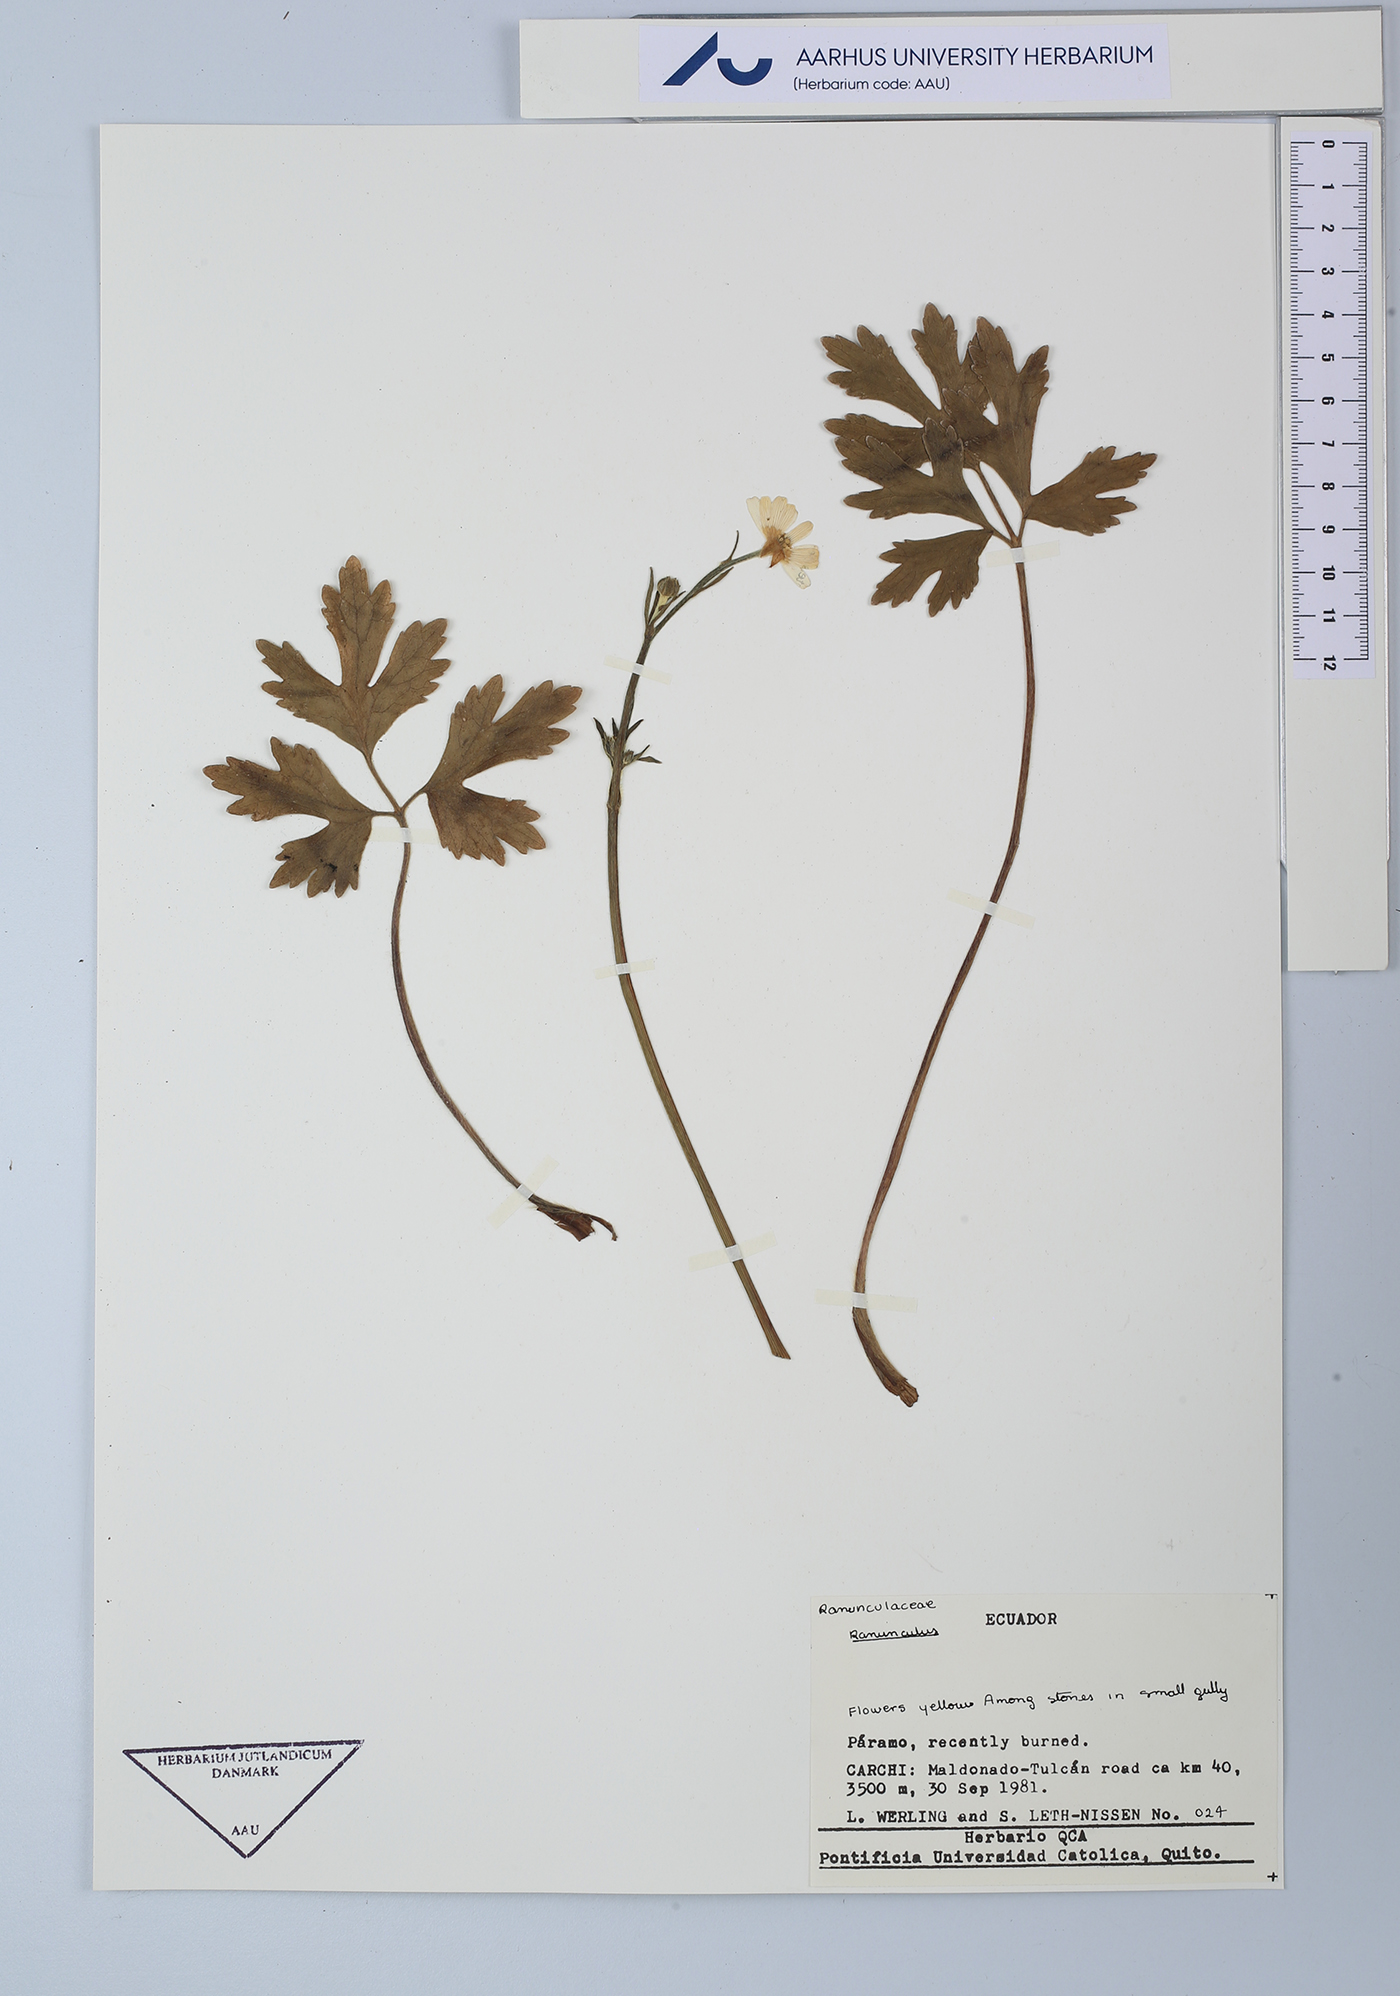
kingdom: Plantae
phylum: Tracheophyta
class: Magnoliopsida
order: Ranunculales
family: Ranunculaceae
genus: Ranunculus
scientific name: Ranunculus
